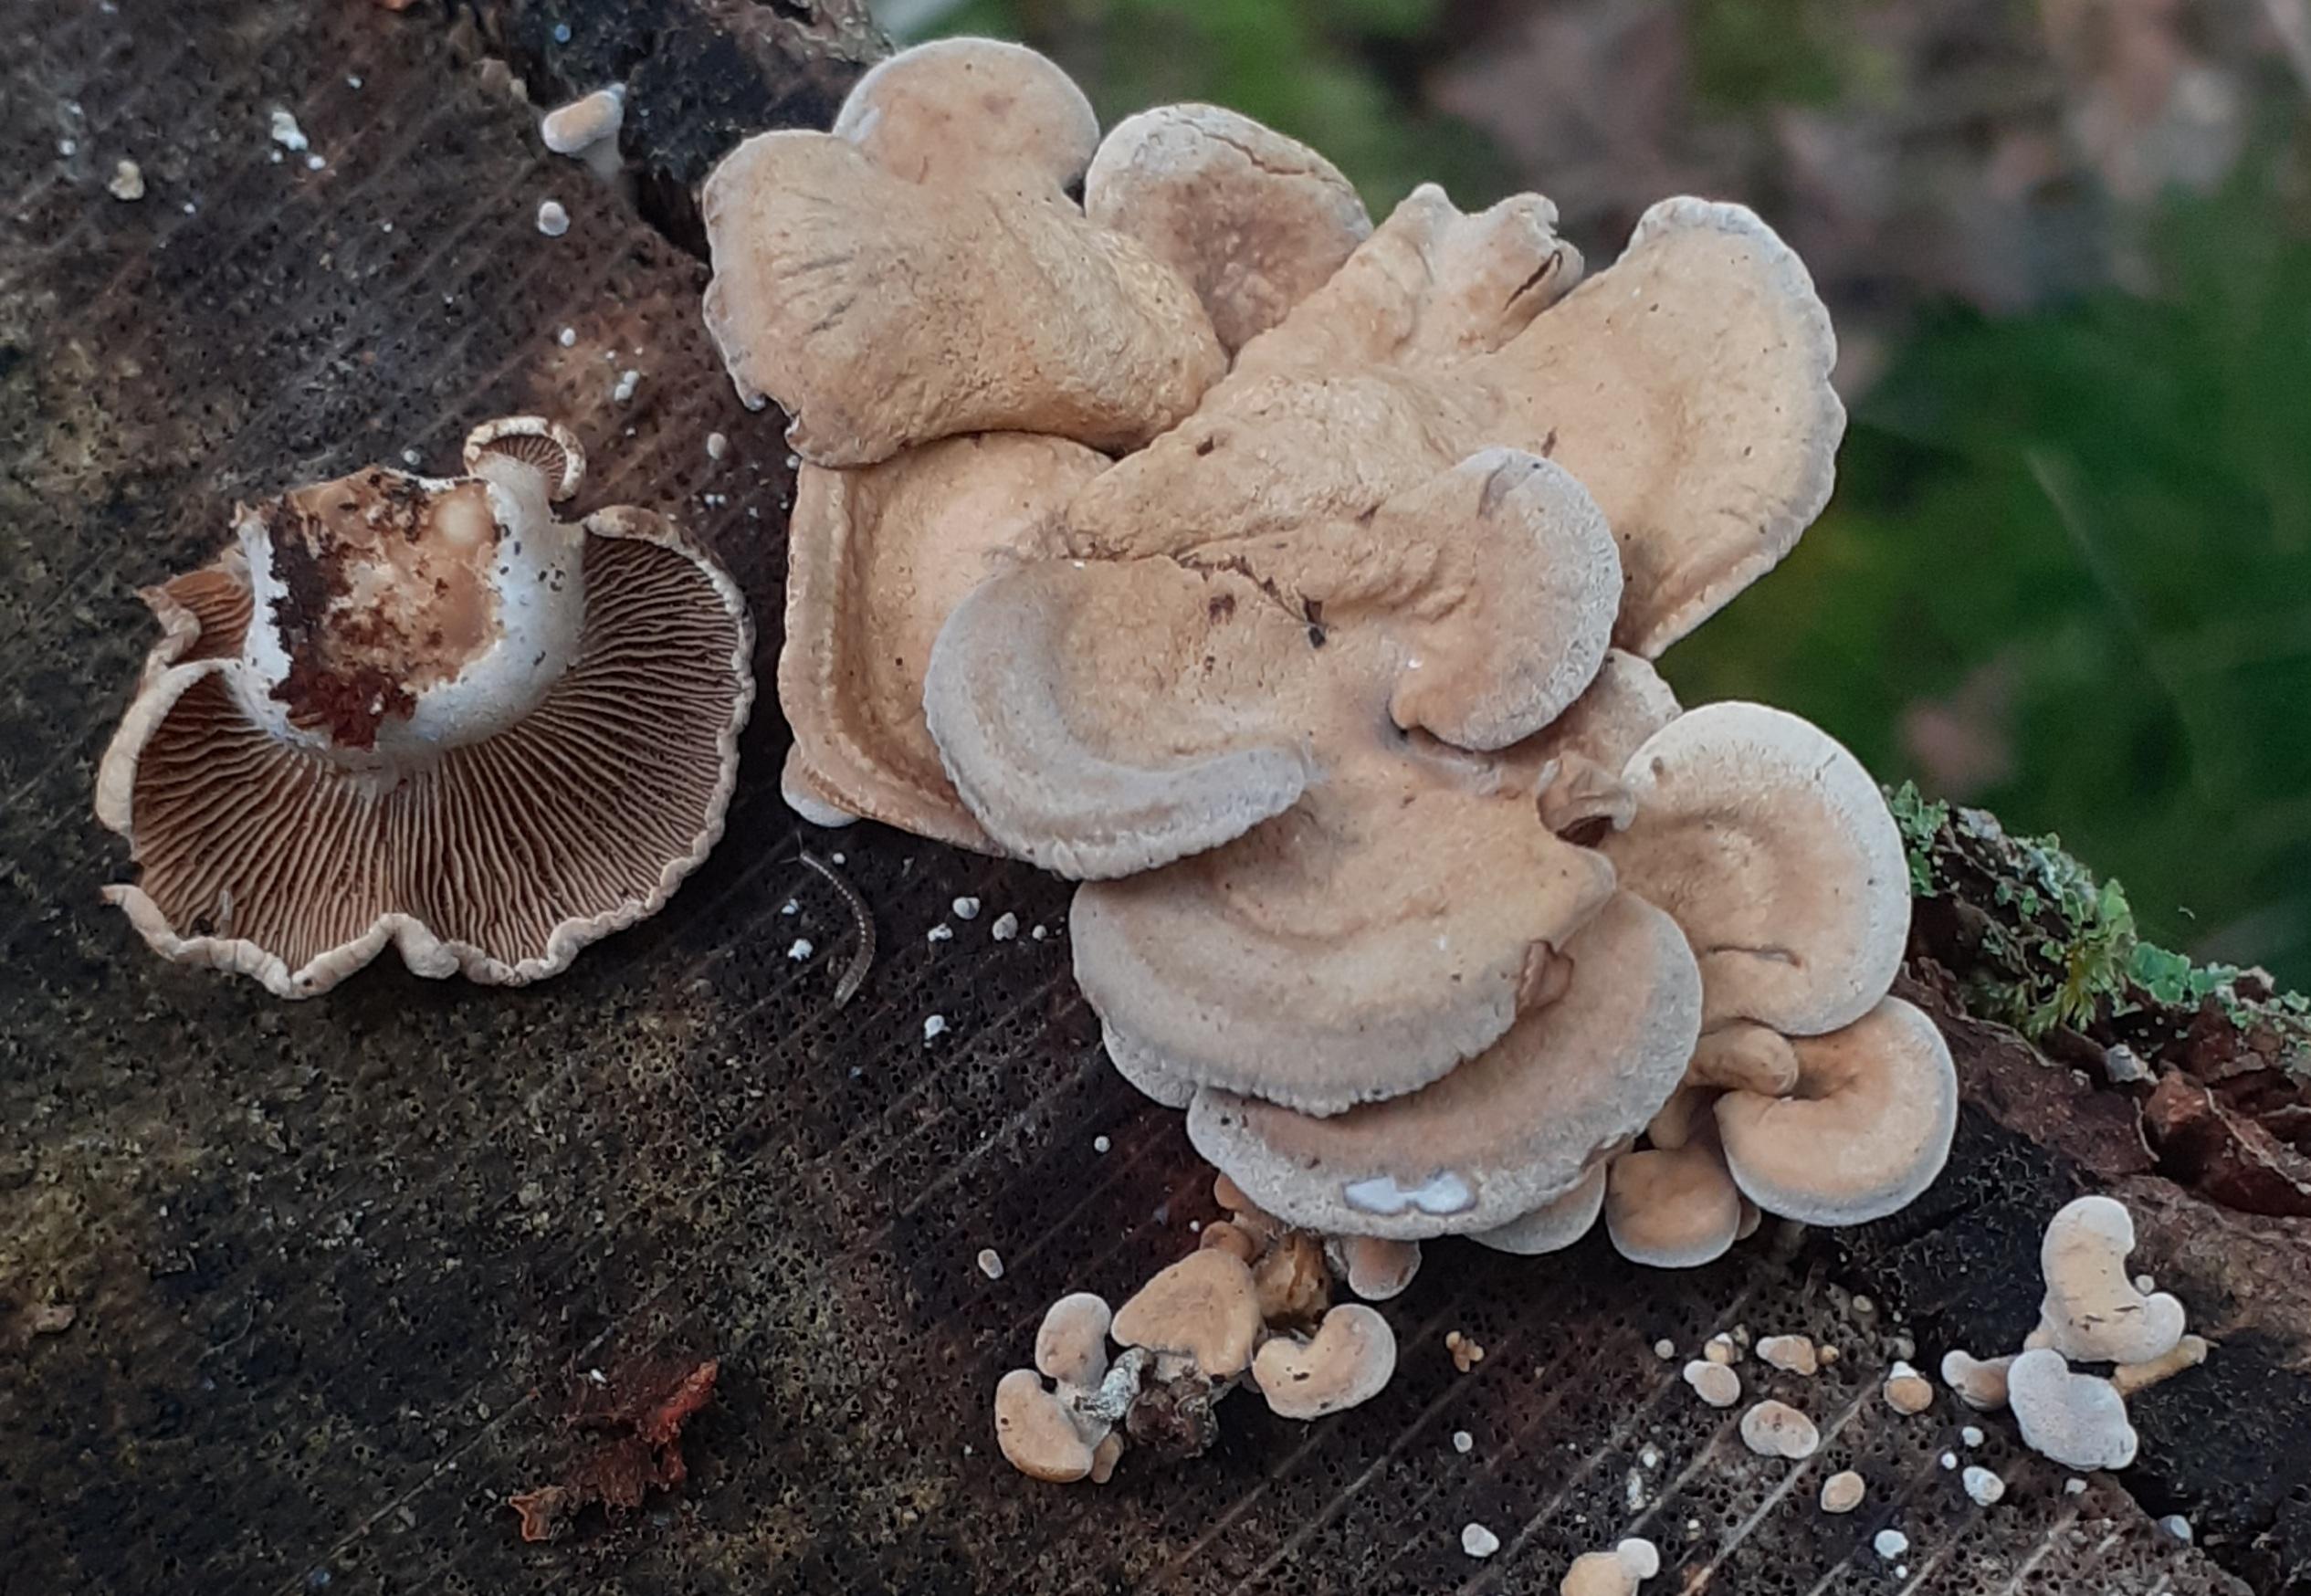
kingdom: Fungi
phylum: Basidiomycota
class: Agaricomycetes
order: Agaricales
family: Mycenaceae
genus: Panellus
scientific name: Panellus stipticus
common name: kliddet epaulethat
